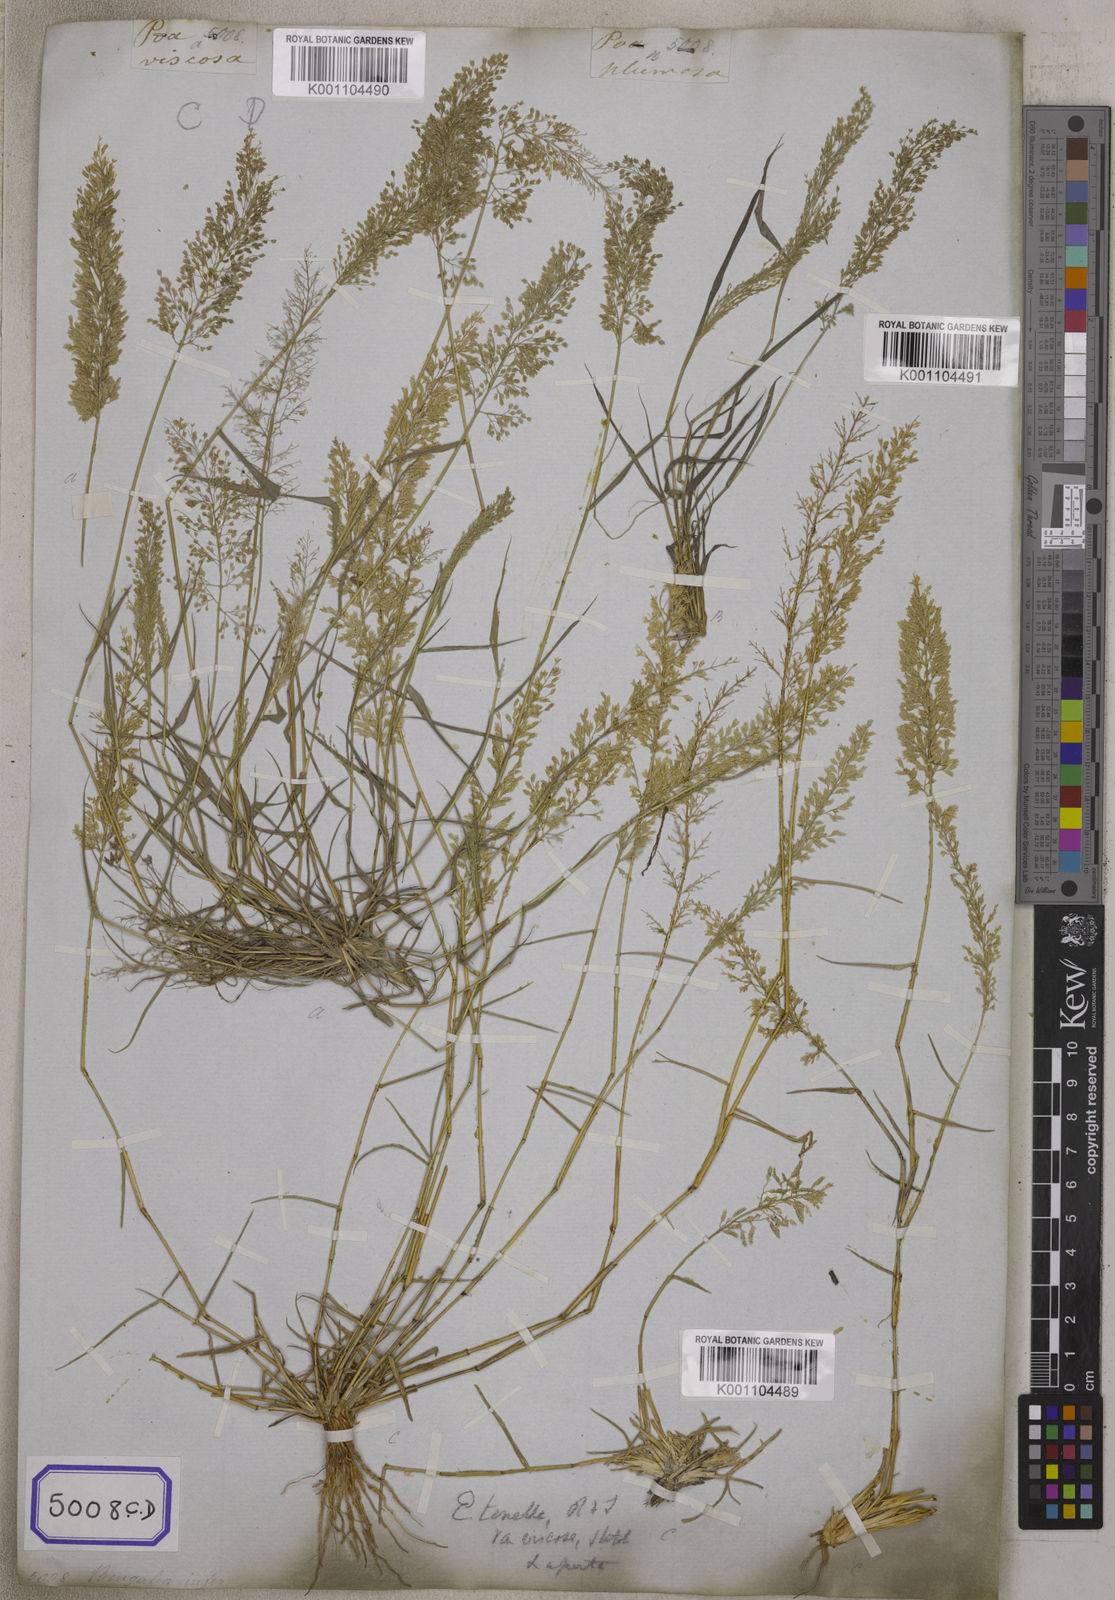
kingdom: Plantae
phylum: Tracheophyta
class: Liliopsida
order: Poales
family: Poaceae
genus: Eragrostis
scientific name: Eragrostis
